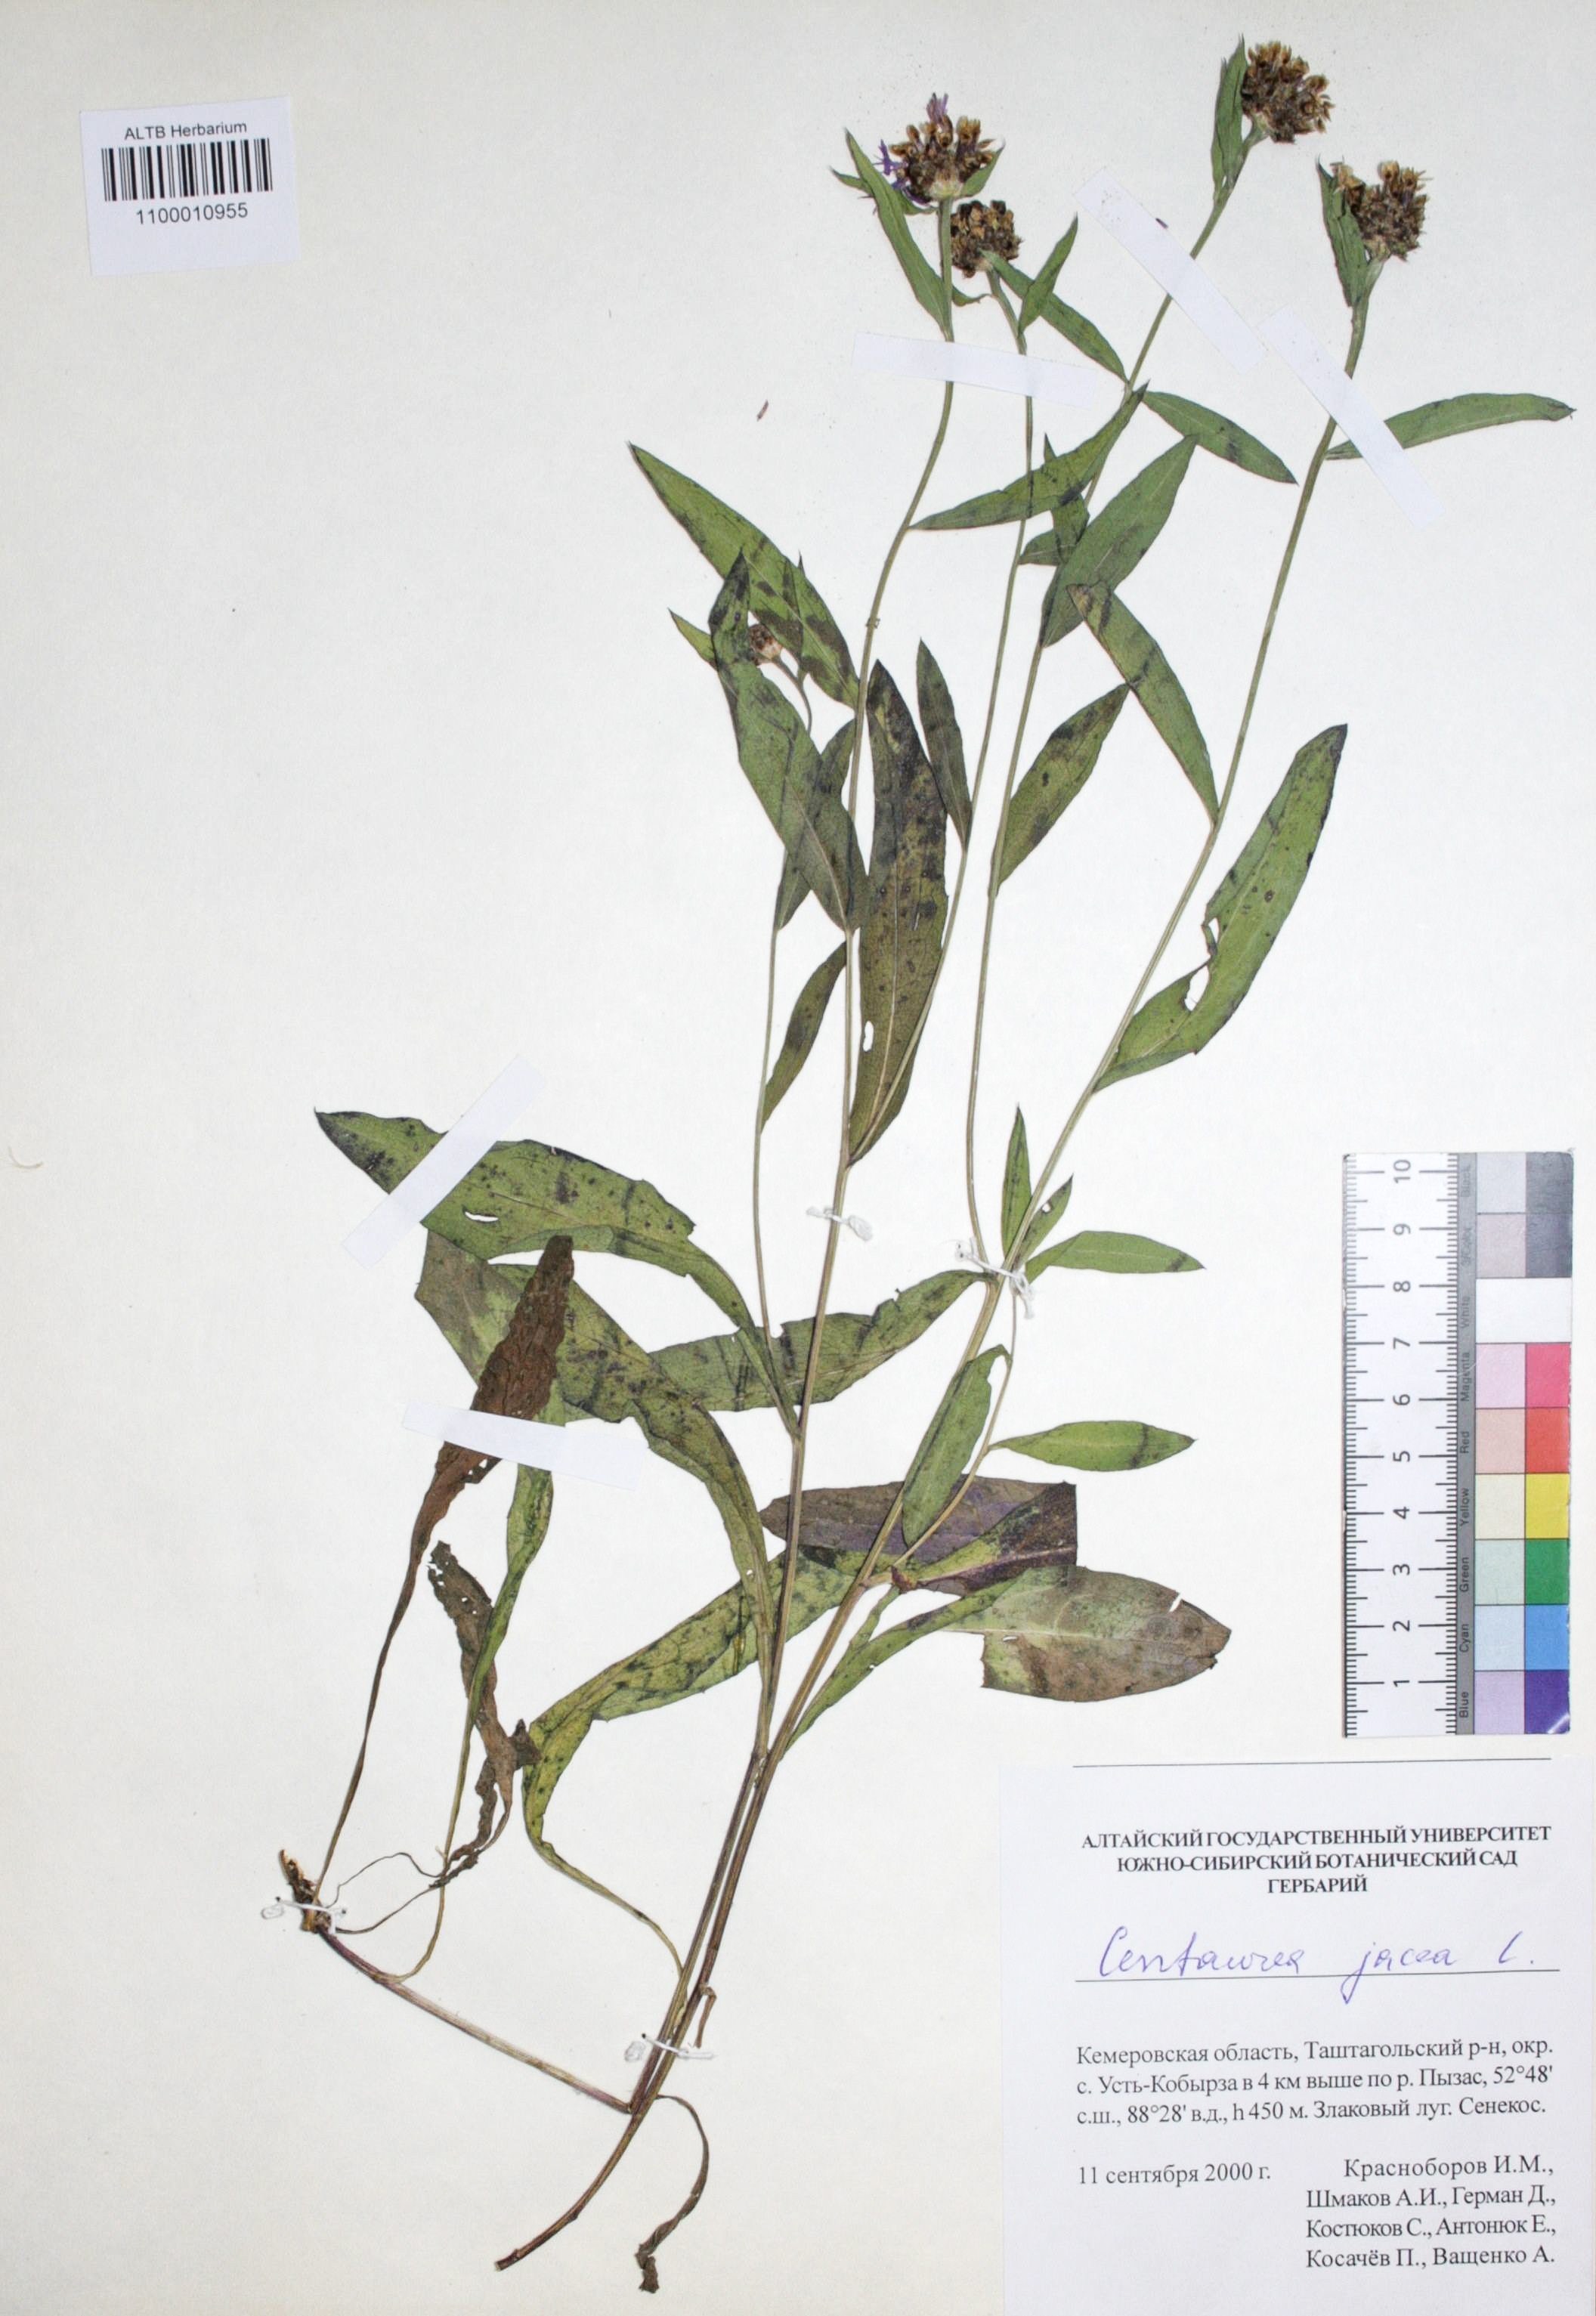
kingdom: Plantae
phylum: Tracheophyta
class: Magnoliopsida
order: Asterales
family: Asteraceae
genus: Centaurea
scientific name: Centaurea jacea
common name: Brown knapweed
